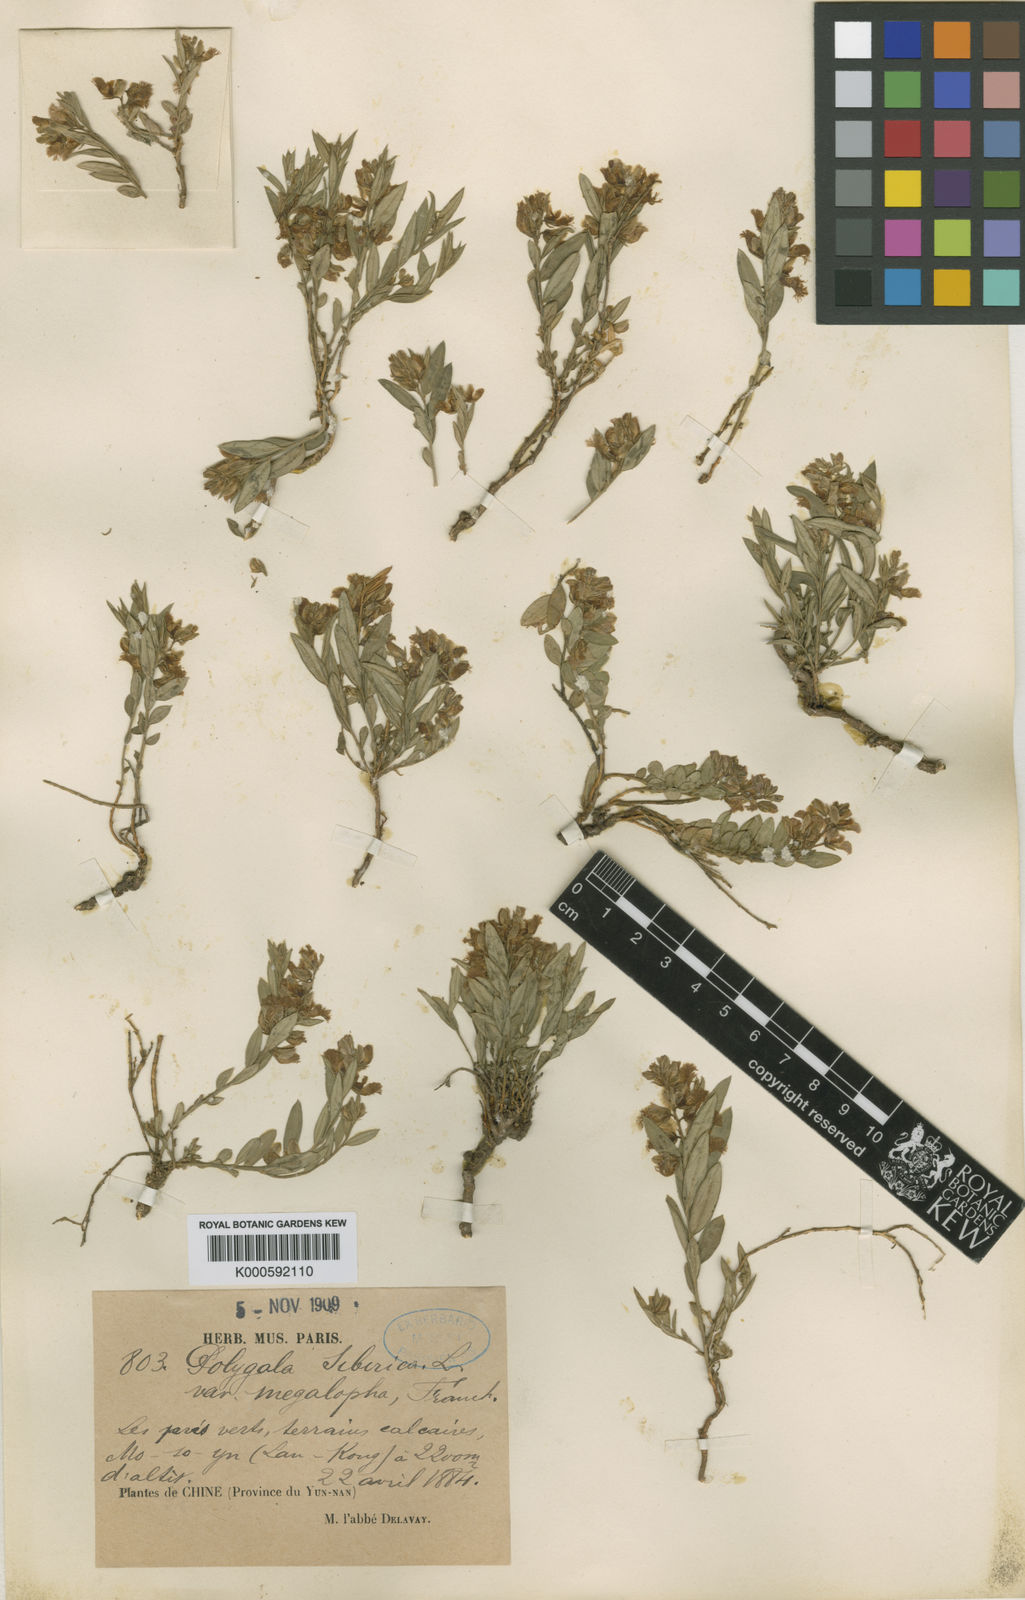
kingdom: Plantae
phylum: Tracheophyta
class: Magnoliopsida
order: Fabales
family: Polygalaceae
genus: Polygala
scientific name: Polygala sibirica
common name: Siberian polygala
